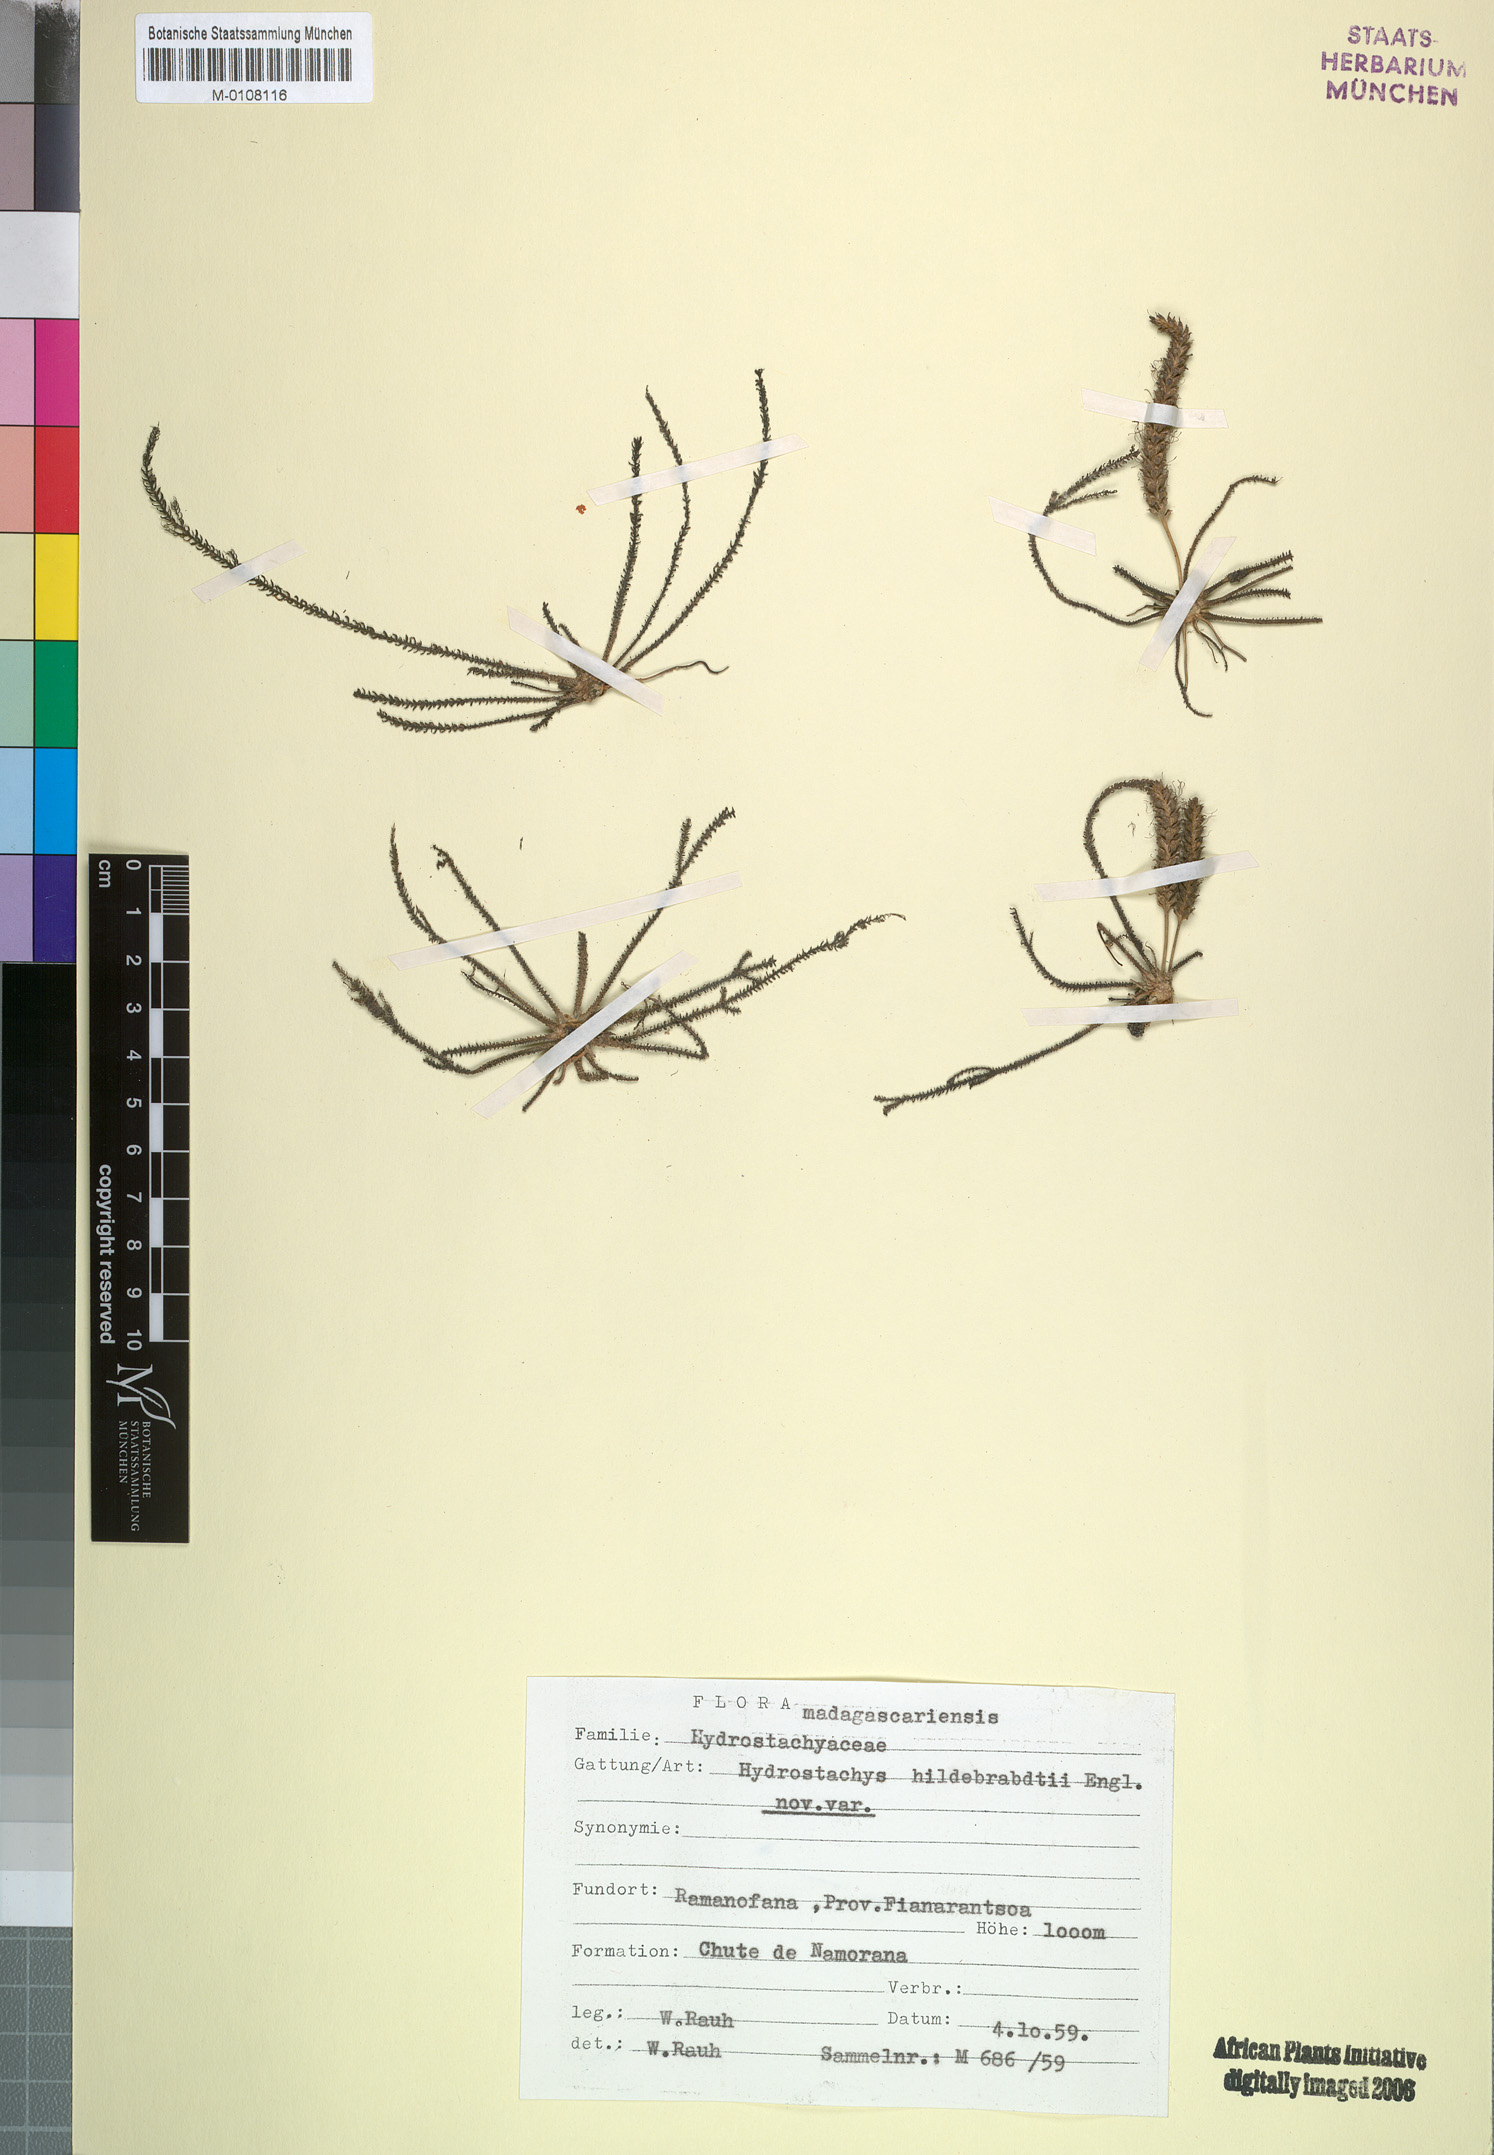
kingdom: Plantae
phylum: Tracheophyta
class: Magnoliopsida
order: Cornales
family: Hydrostachyaceae
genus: Hydrostachys
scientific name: Hydrostachys distichophylla
